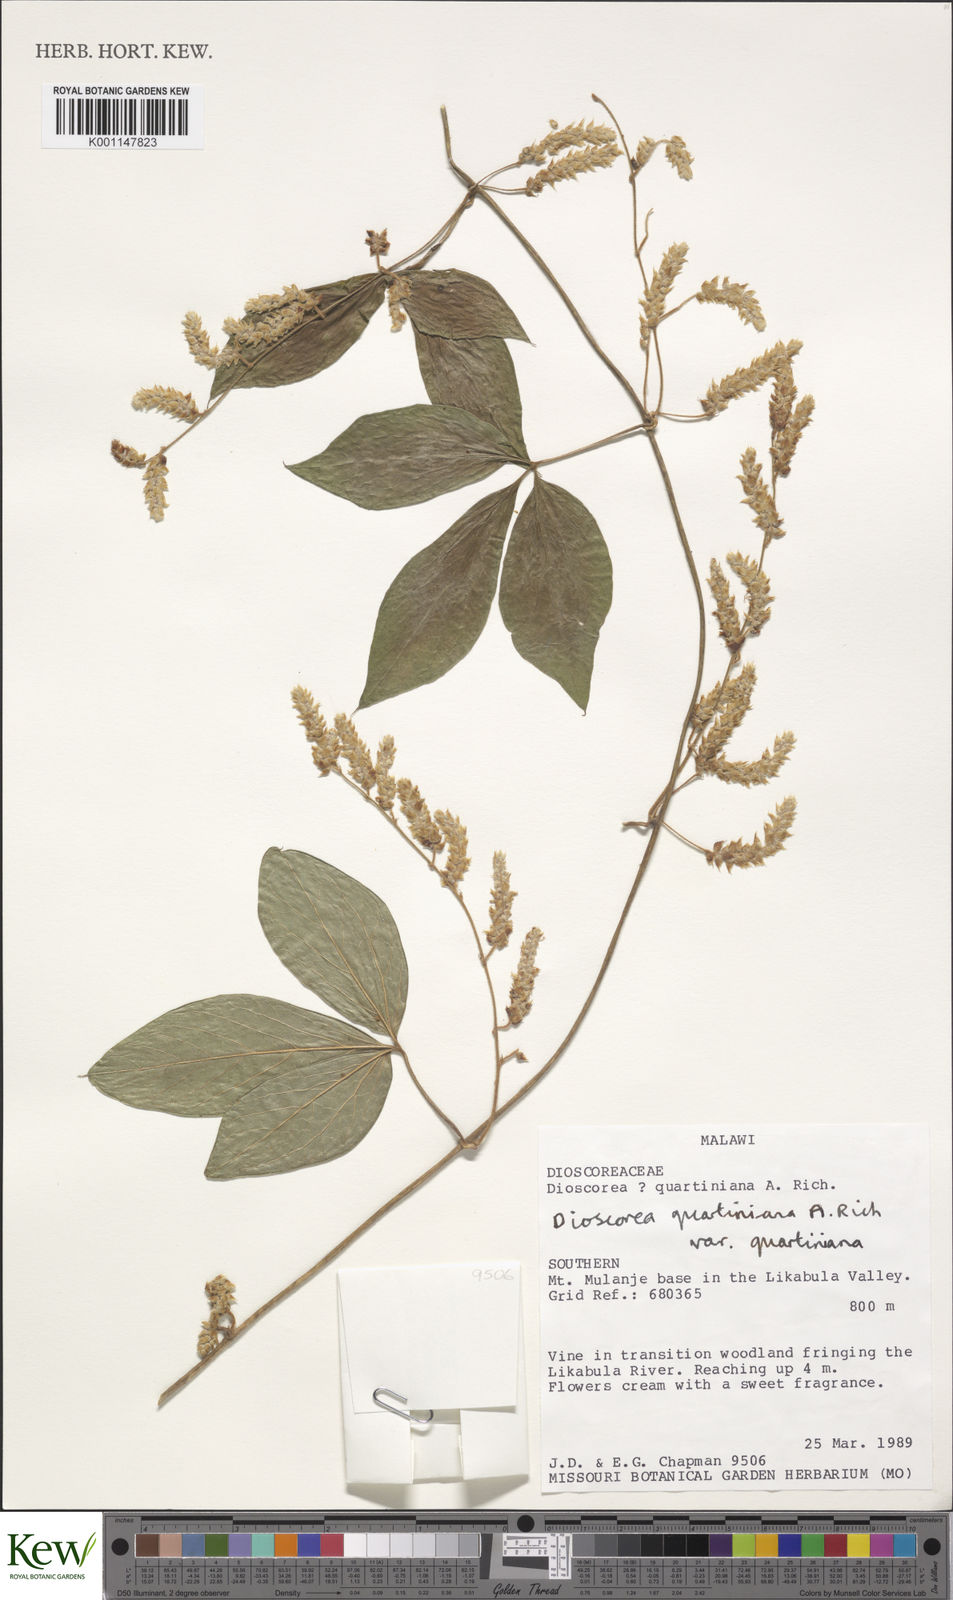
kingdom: Plantae
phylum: Tracheophyta
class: Liliopsida
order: Dioscoreales
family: Dioscoreaceae
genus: Dioscorea
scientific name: Dioscorea quartiniana
